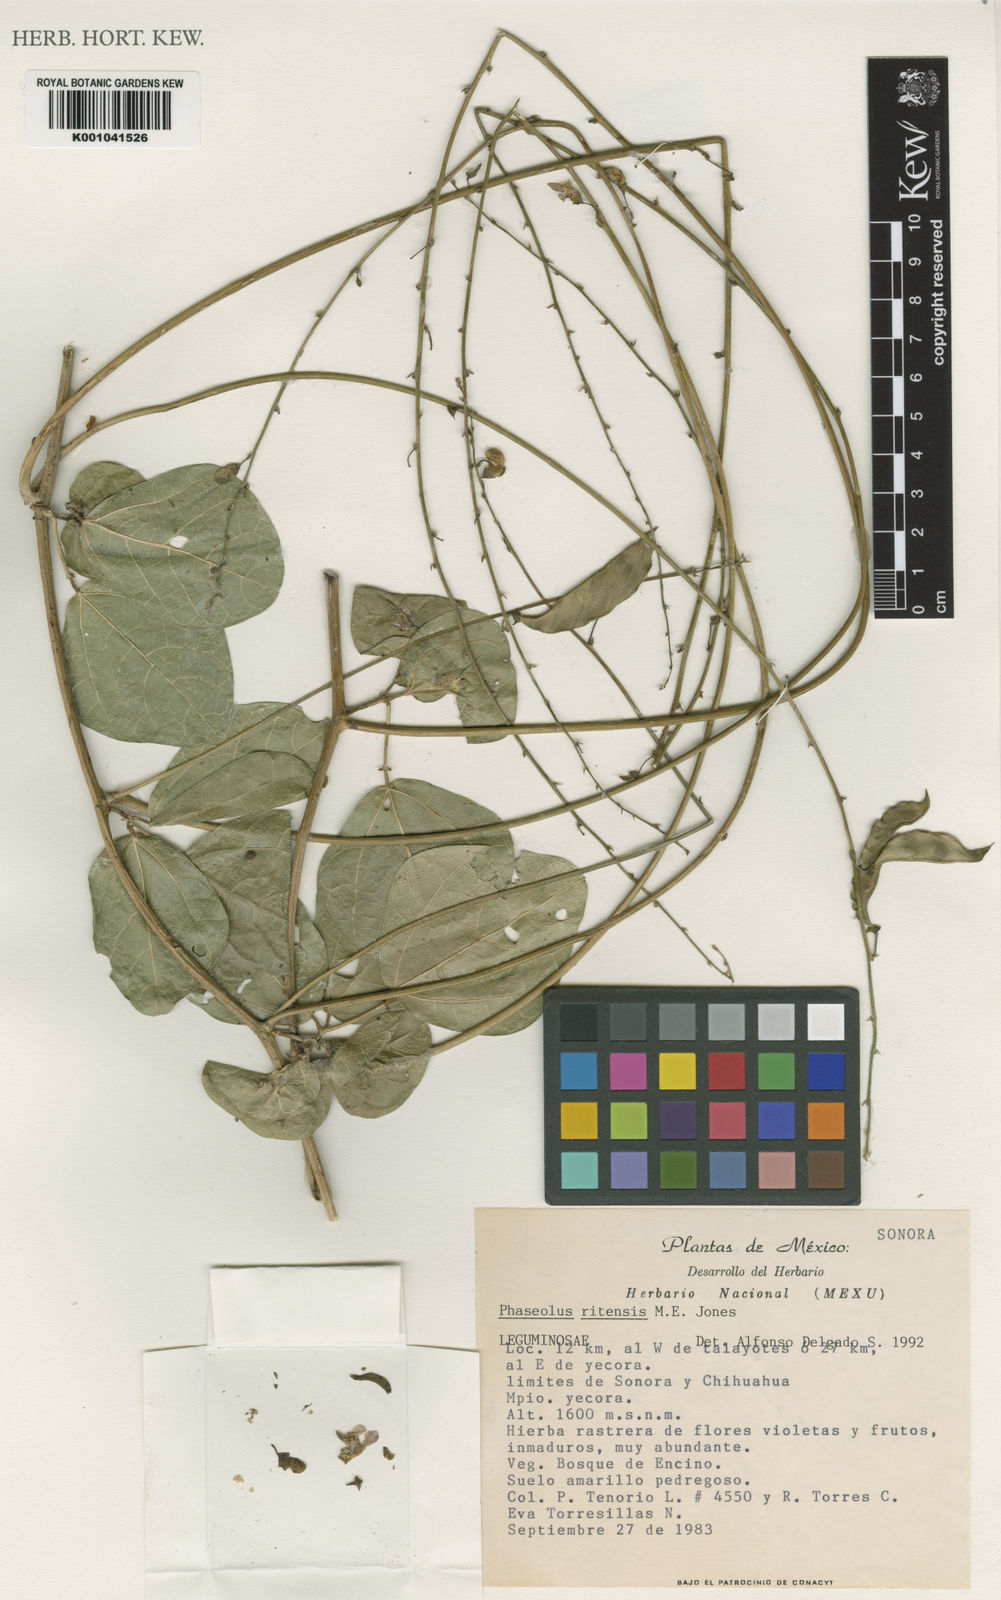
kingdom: Plantae
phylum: Tracheophyta
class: Magnoliopsida
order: Fabales
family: Fabaceae
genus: Phaseolus
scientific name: Phaseolus maculatus
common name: Metcalfe bean
